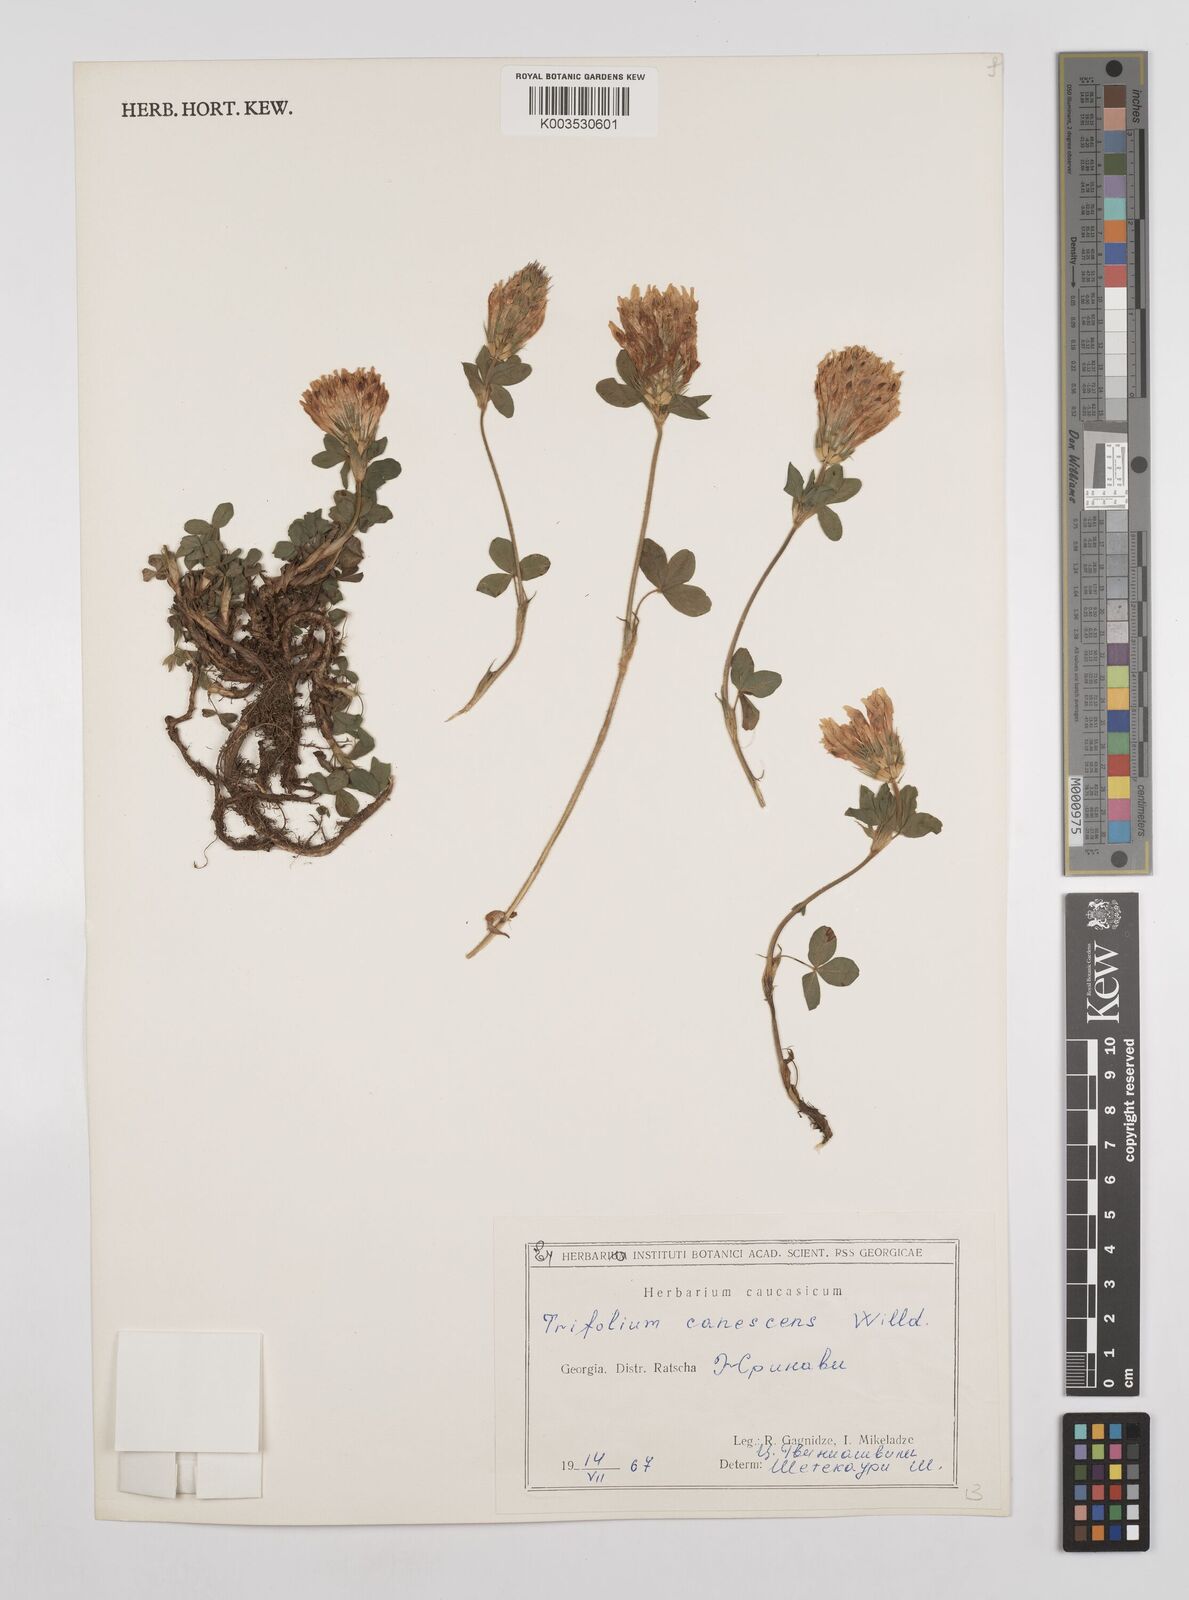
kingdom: Plantae
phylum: Tracheophyta
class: Magnoliopsida
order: Gentianales
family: Rubiaceae
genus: Afrocanthium
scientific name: Afrocanthium keniense
